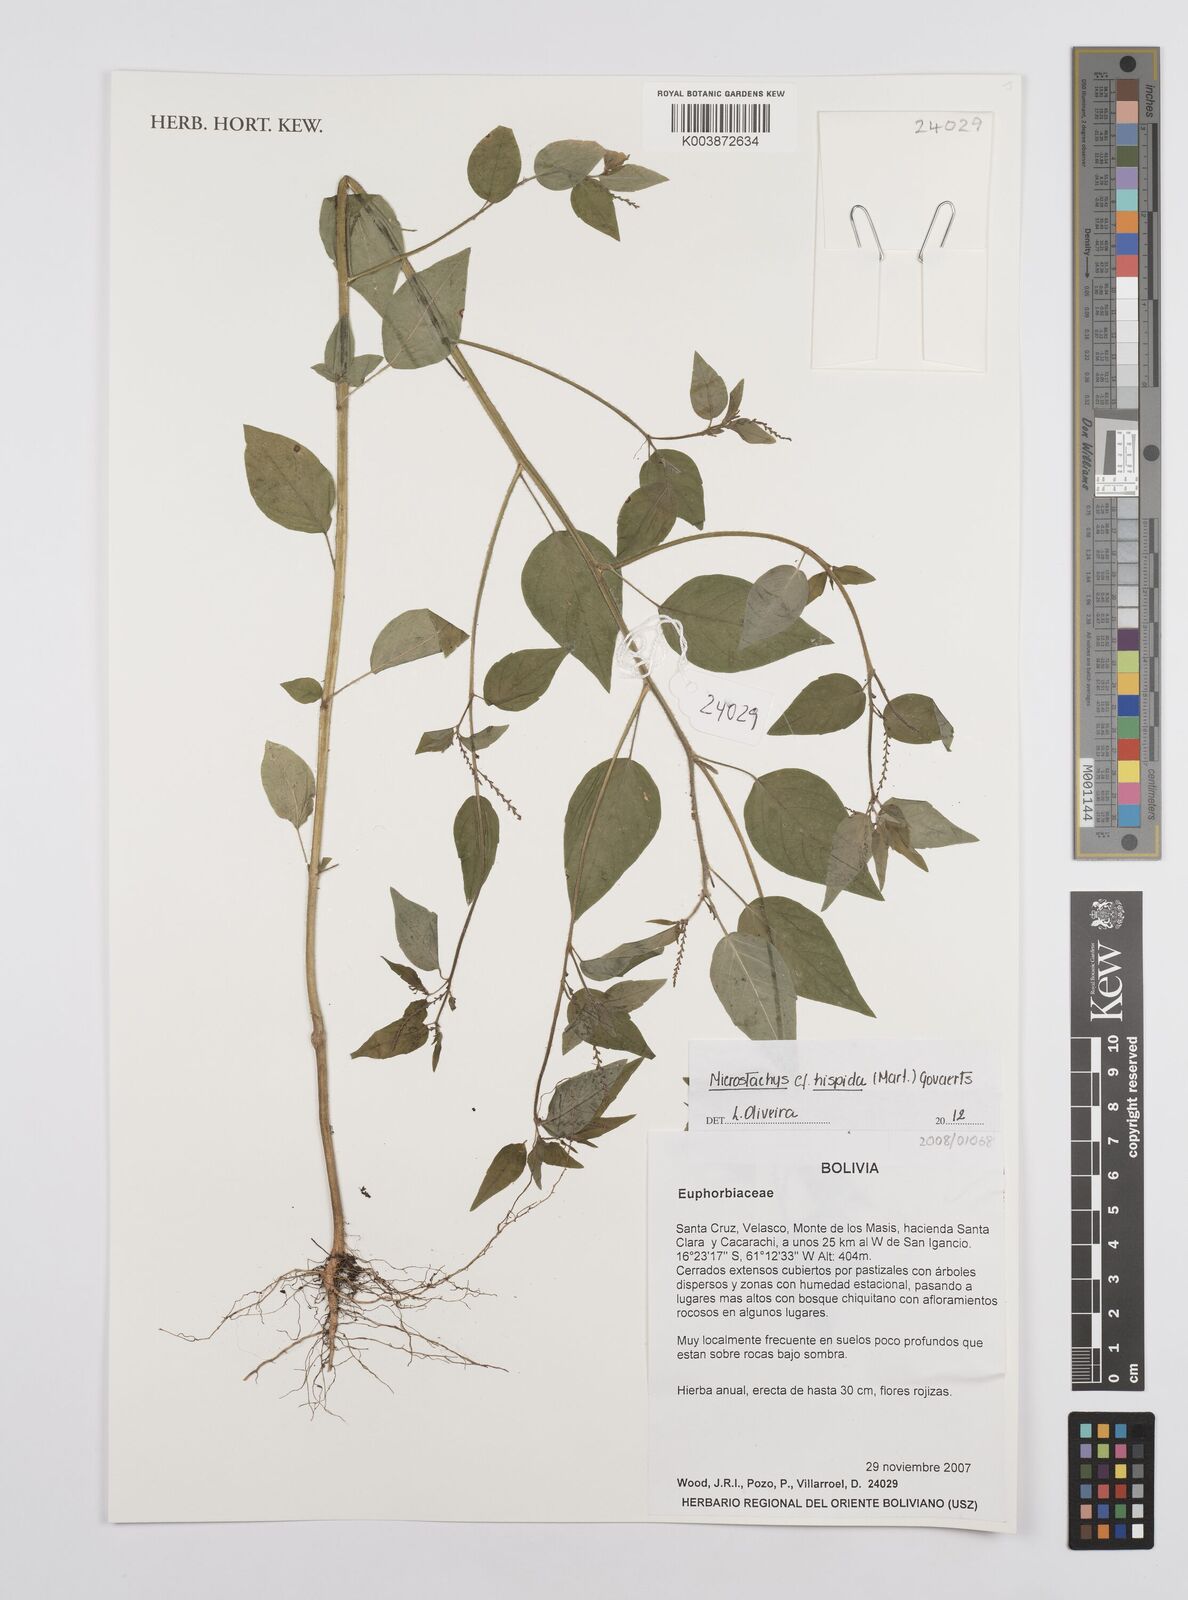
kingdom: Plantae
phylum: Tracheophyta
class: Magnoliopsida
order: Malpighiales
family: Euphorbiaceae
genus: Microstachys
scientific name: Microstachys hispida
